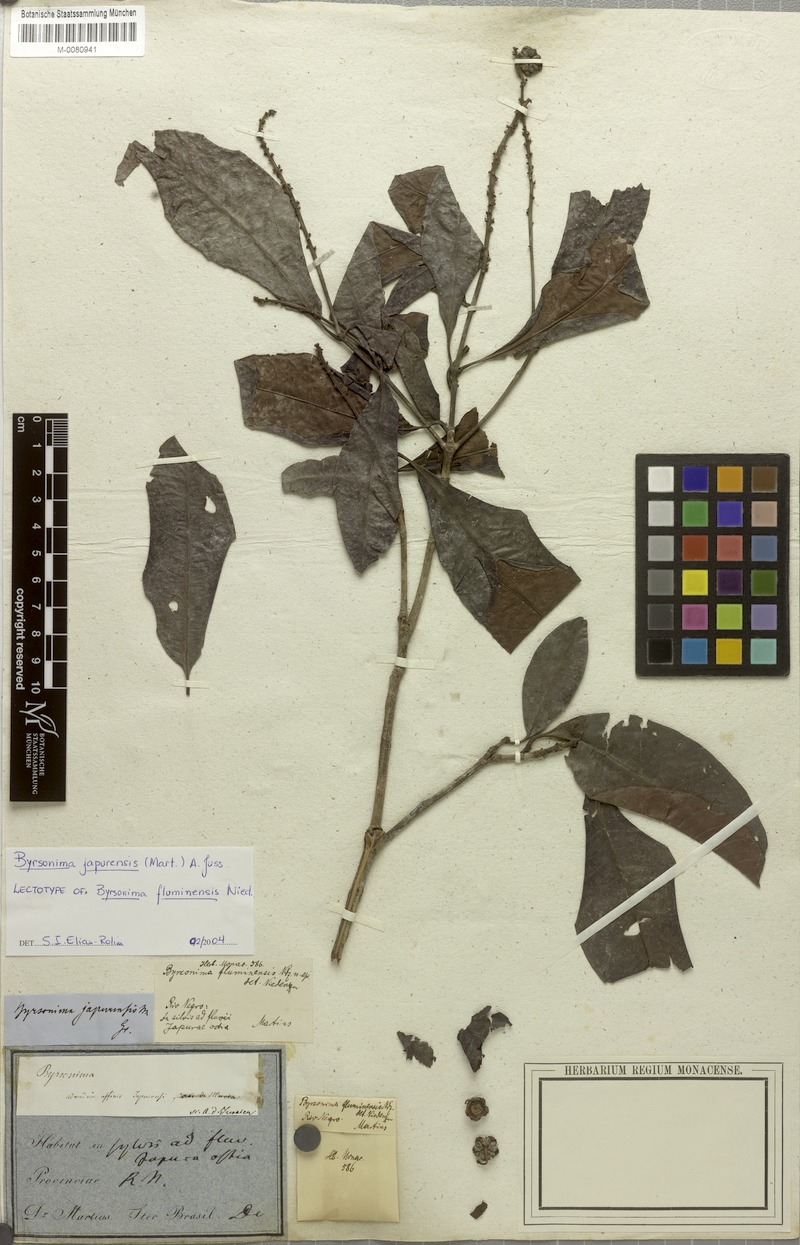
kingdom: Plantae
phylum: Tracheophyta
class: Magnoliopsida
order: Malpighiales
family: Malpighiaceae
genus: Byrsonima
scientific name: Byrsonima japurensis
